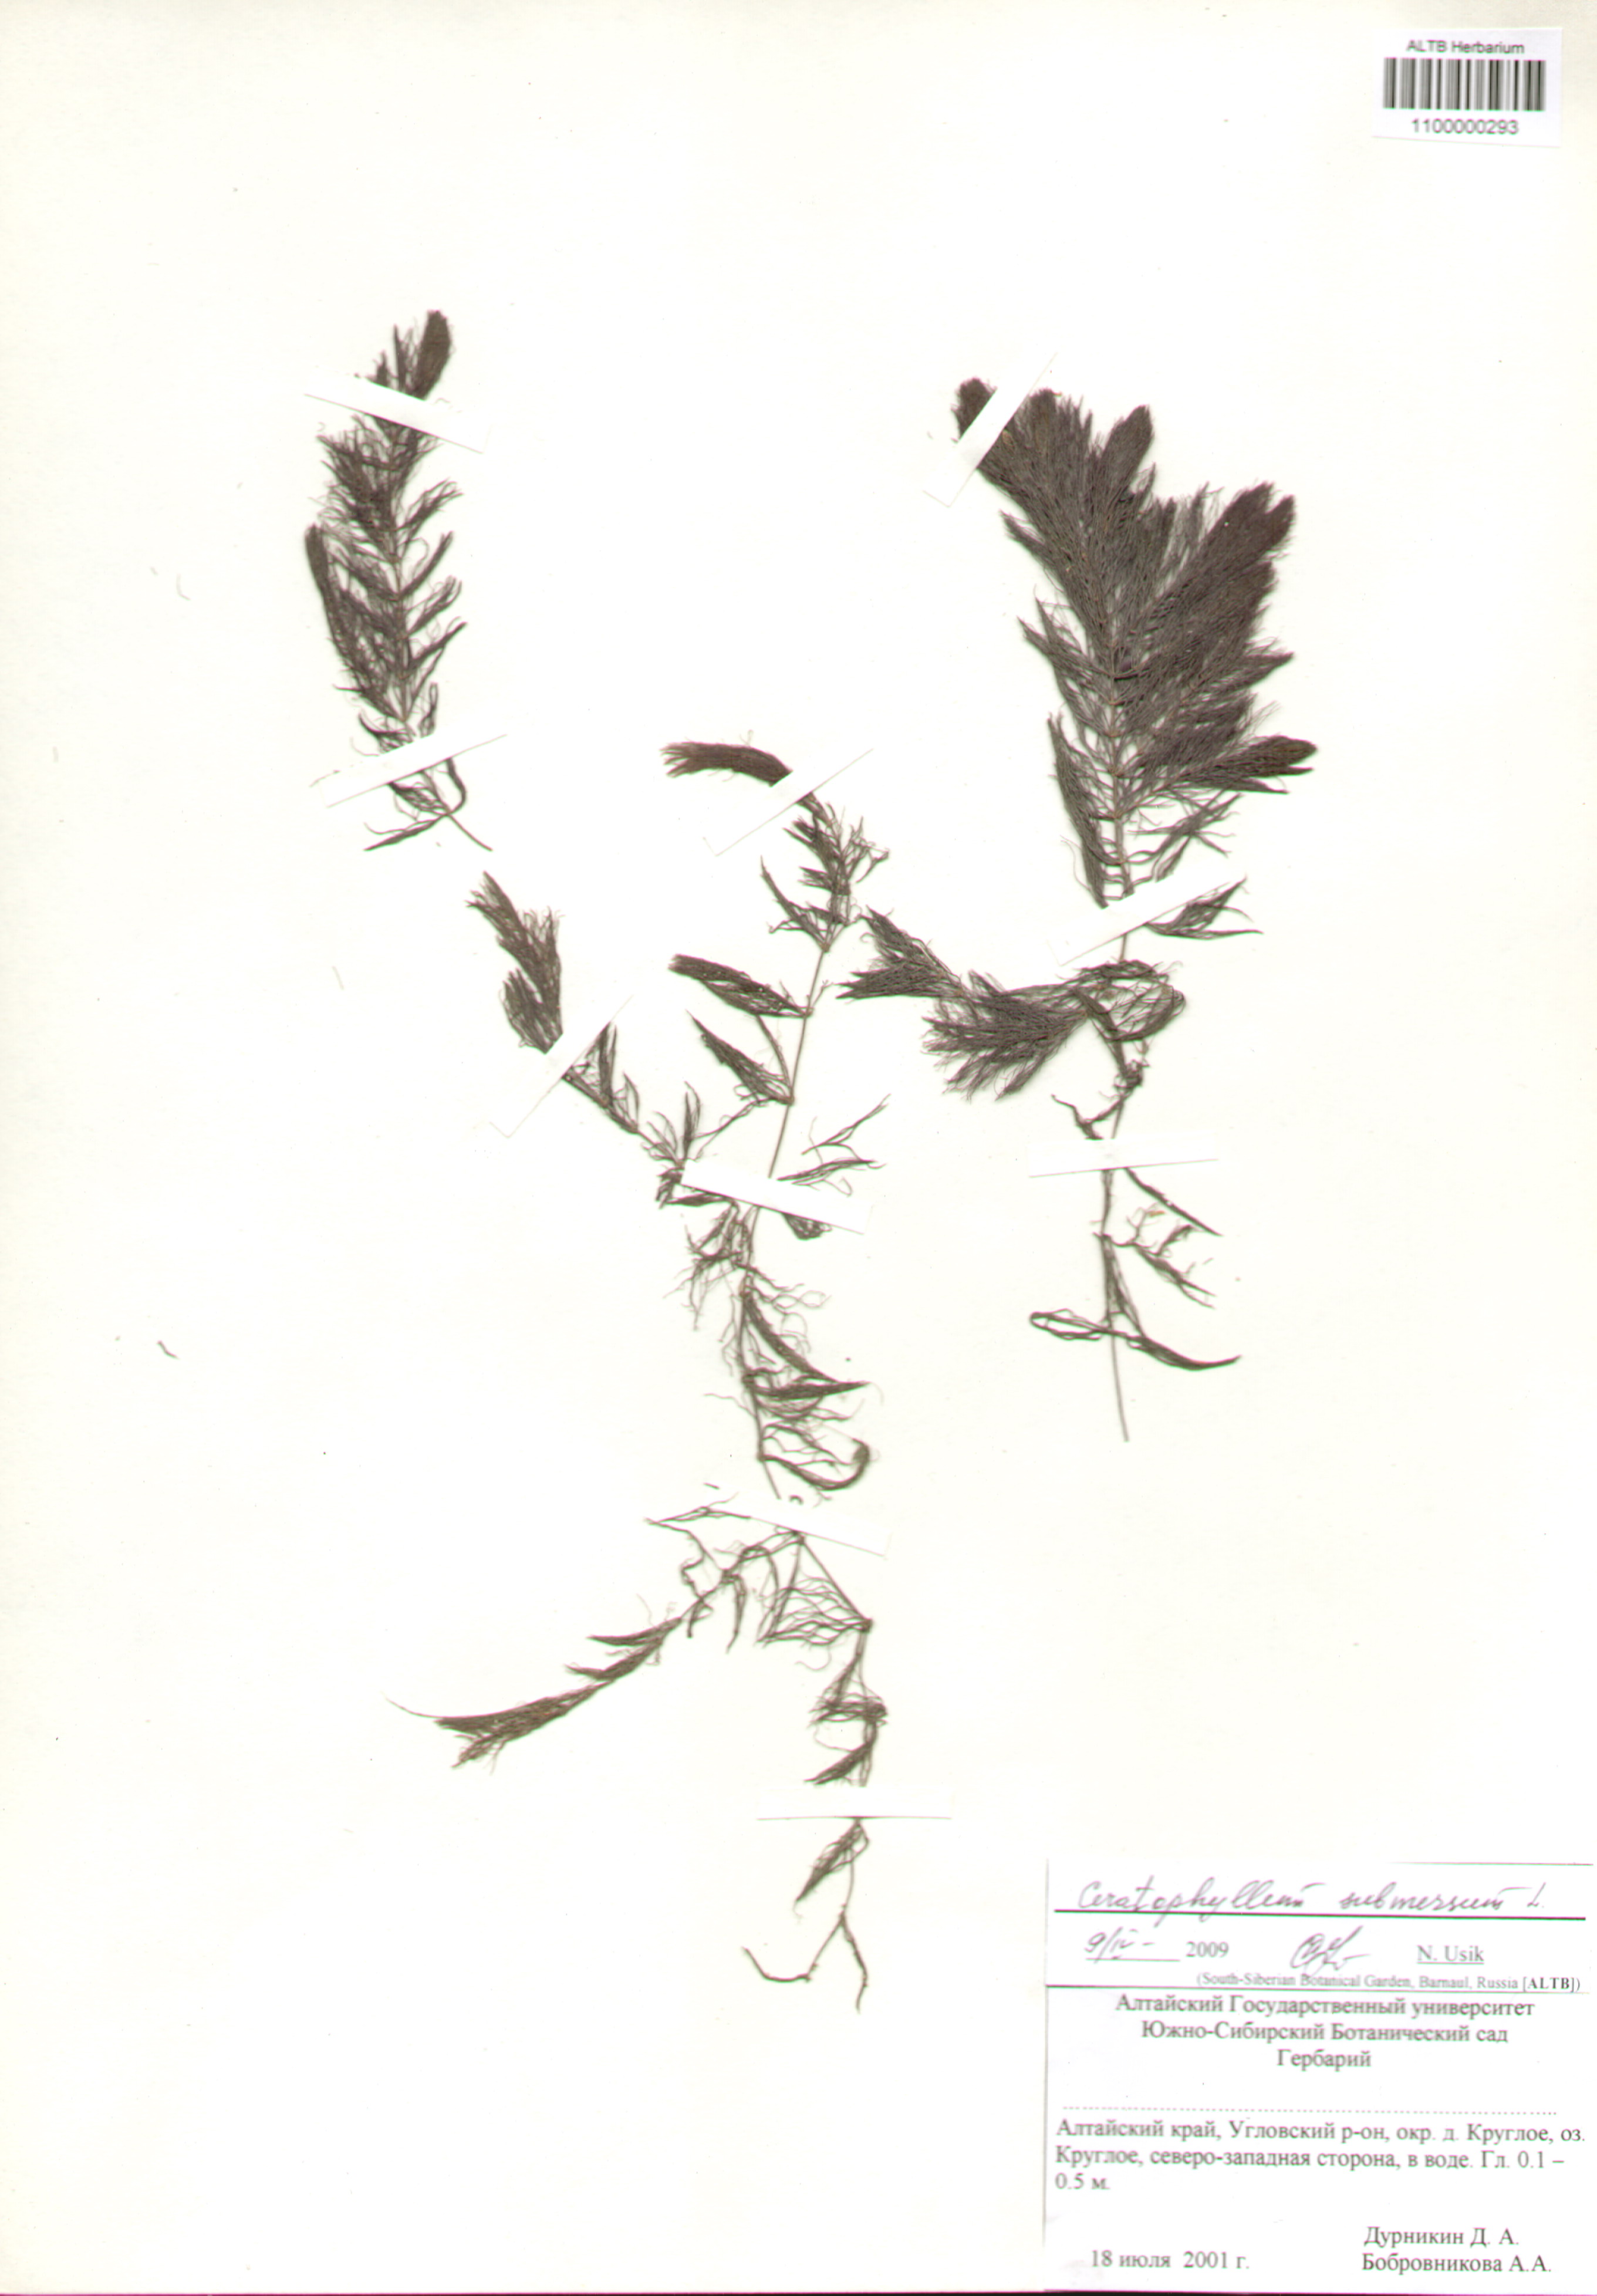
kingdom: Plantae
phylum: Tracheophyta
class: Magnoliopsida
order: Ceratophyllales
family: Ceratophyllaceae
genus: Ceratophyllum
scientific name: Ceratophyllum submersum
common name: Soft hornwort
